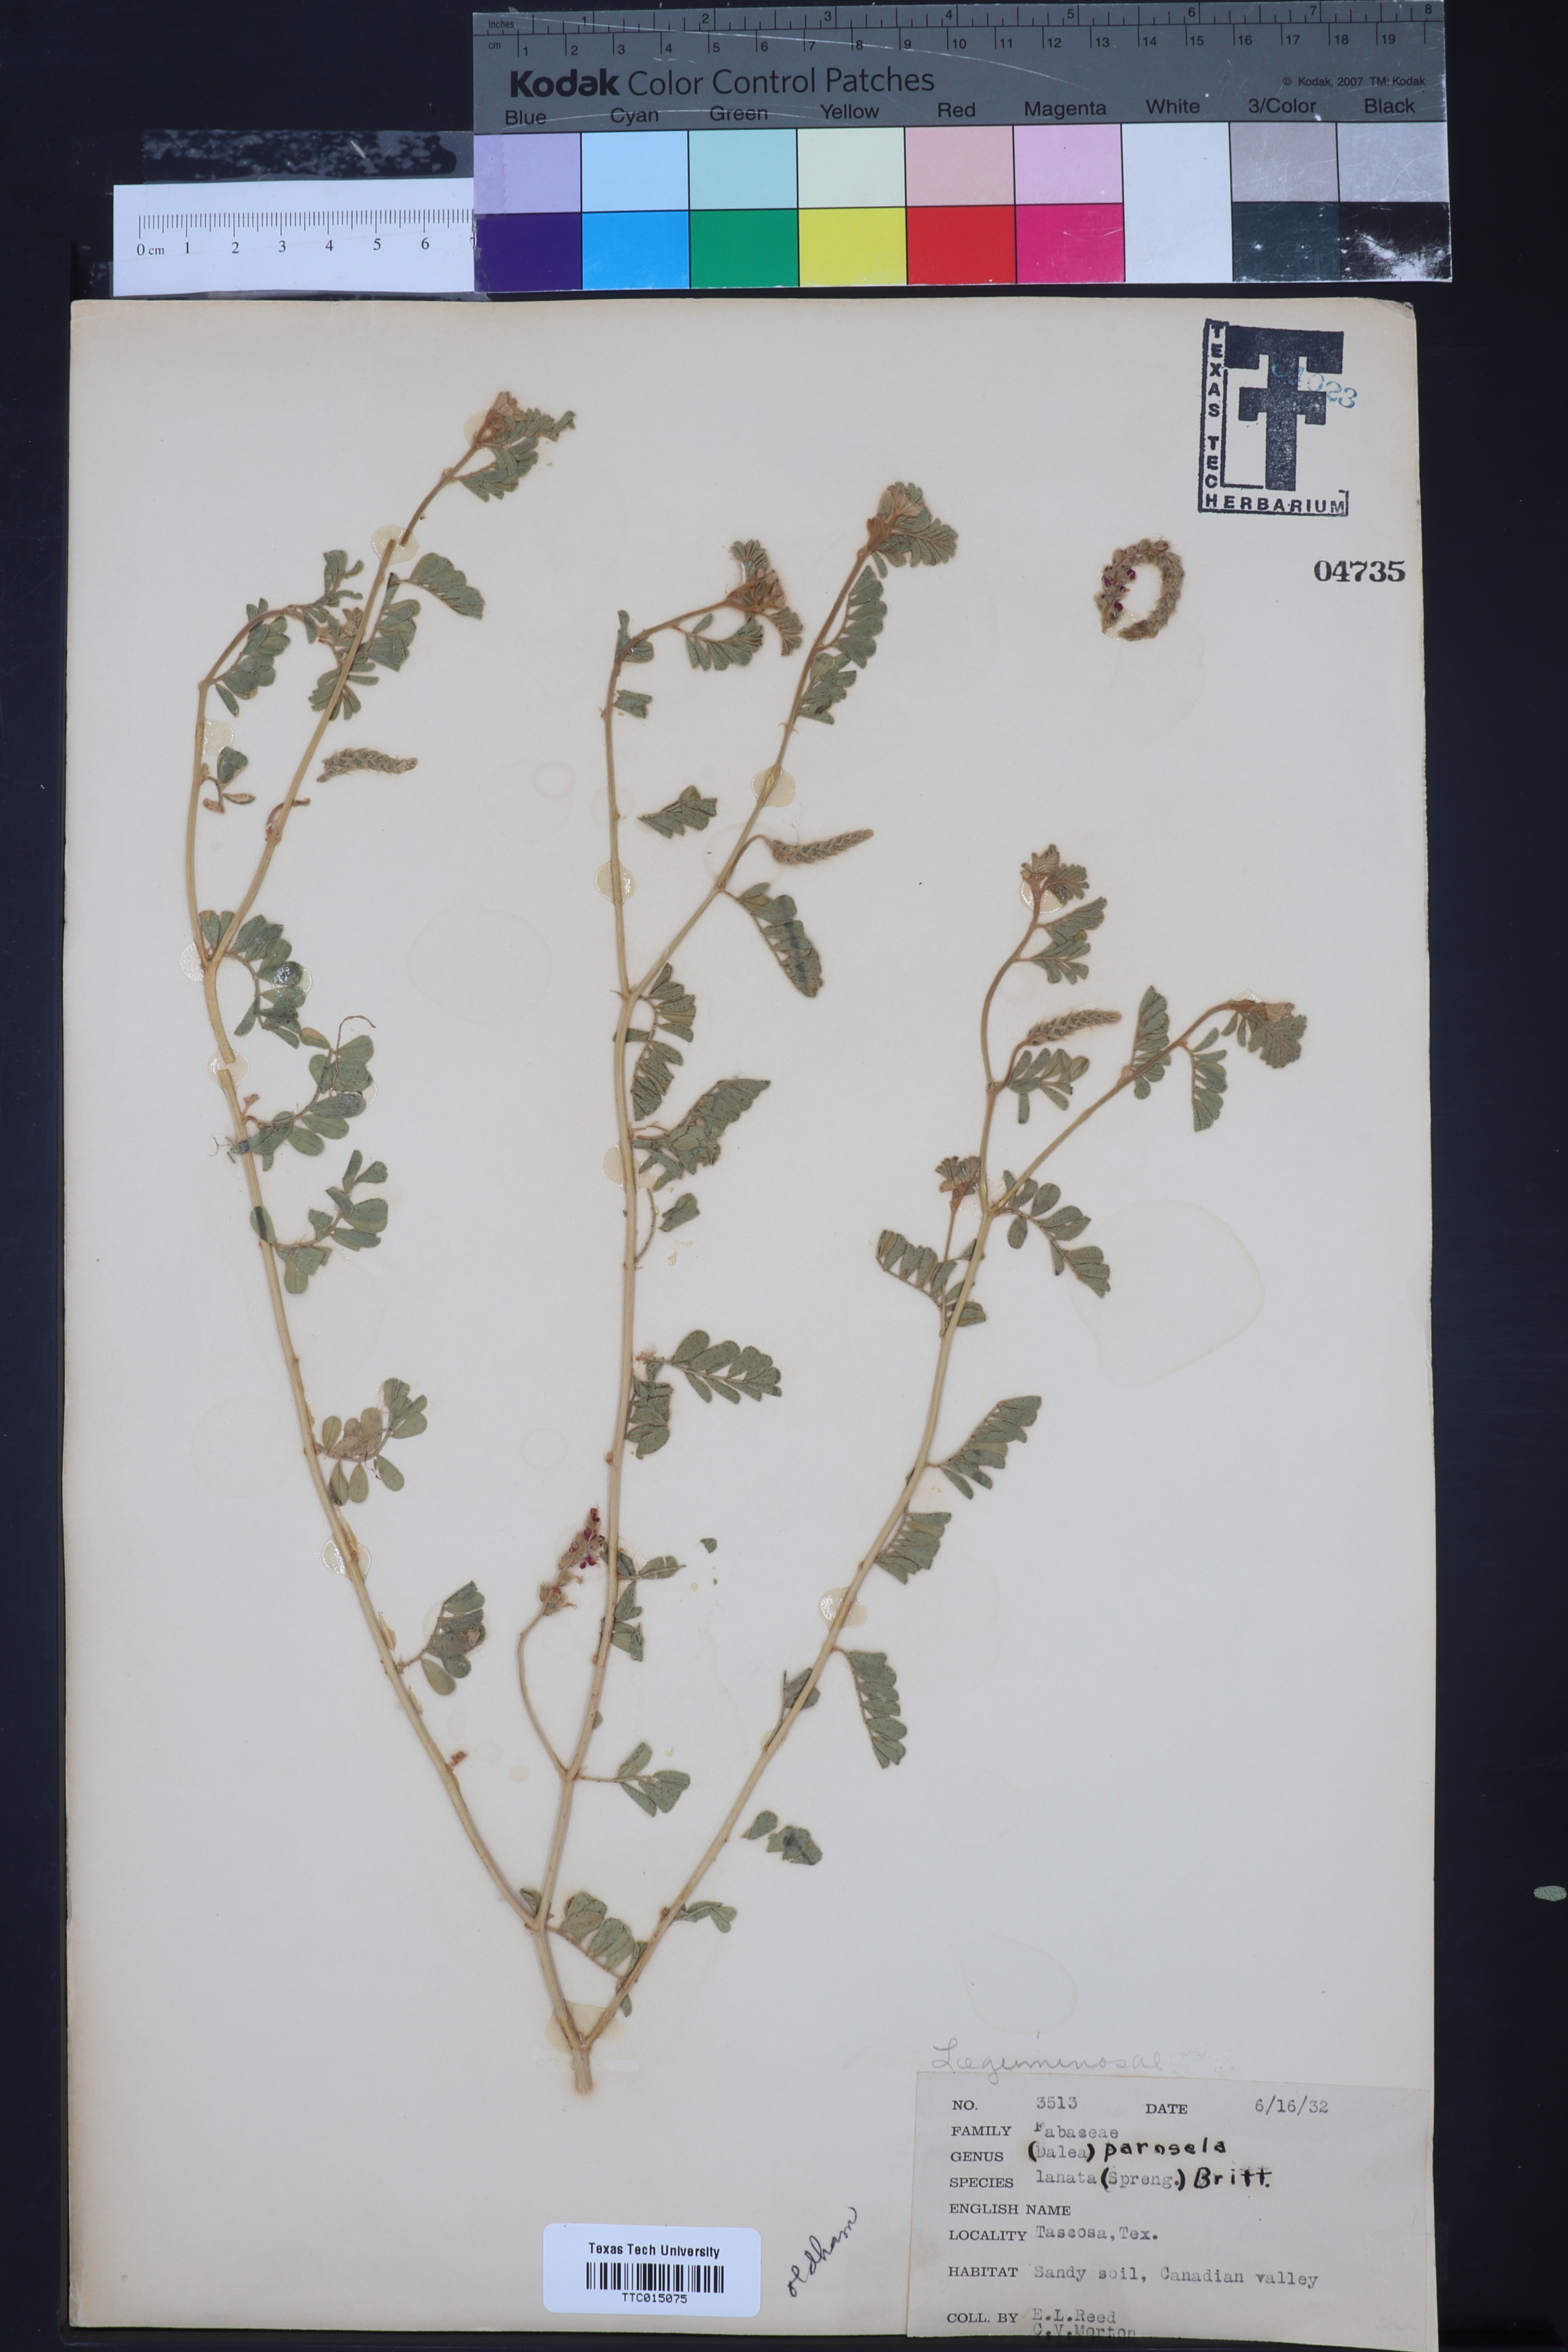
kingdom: Plantae
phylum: Tracheophyta
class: Magnoliopsida
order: Fabales
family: Fabaceae
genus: Dalea
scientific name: Dalea lanata
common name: Woolly dalea
